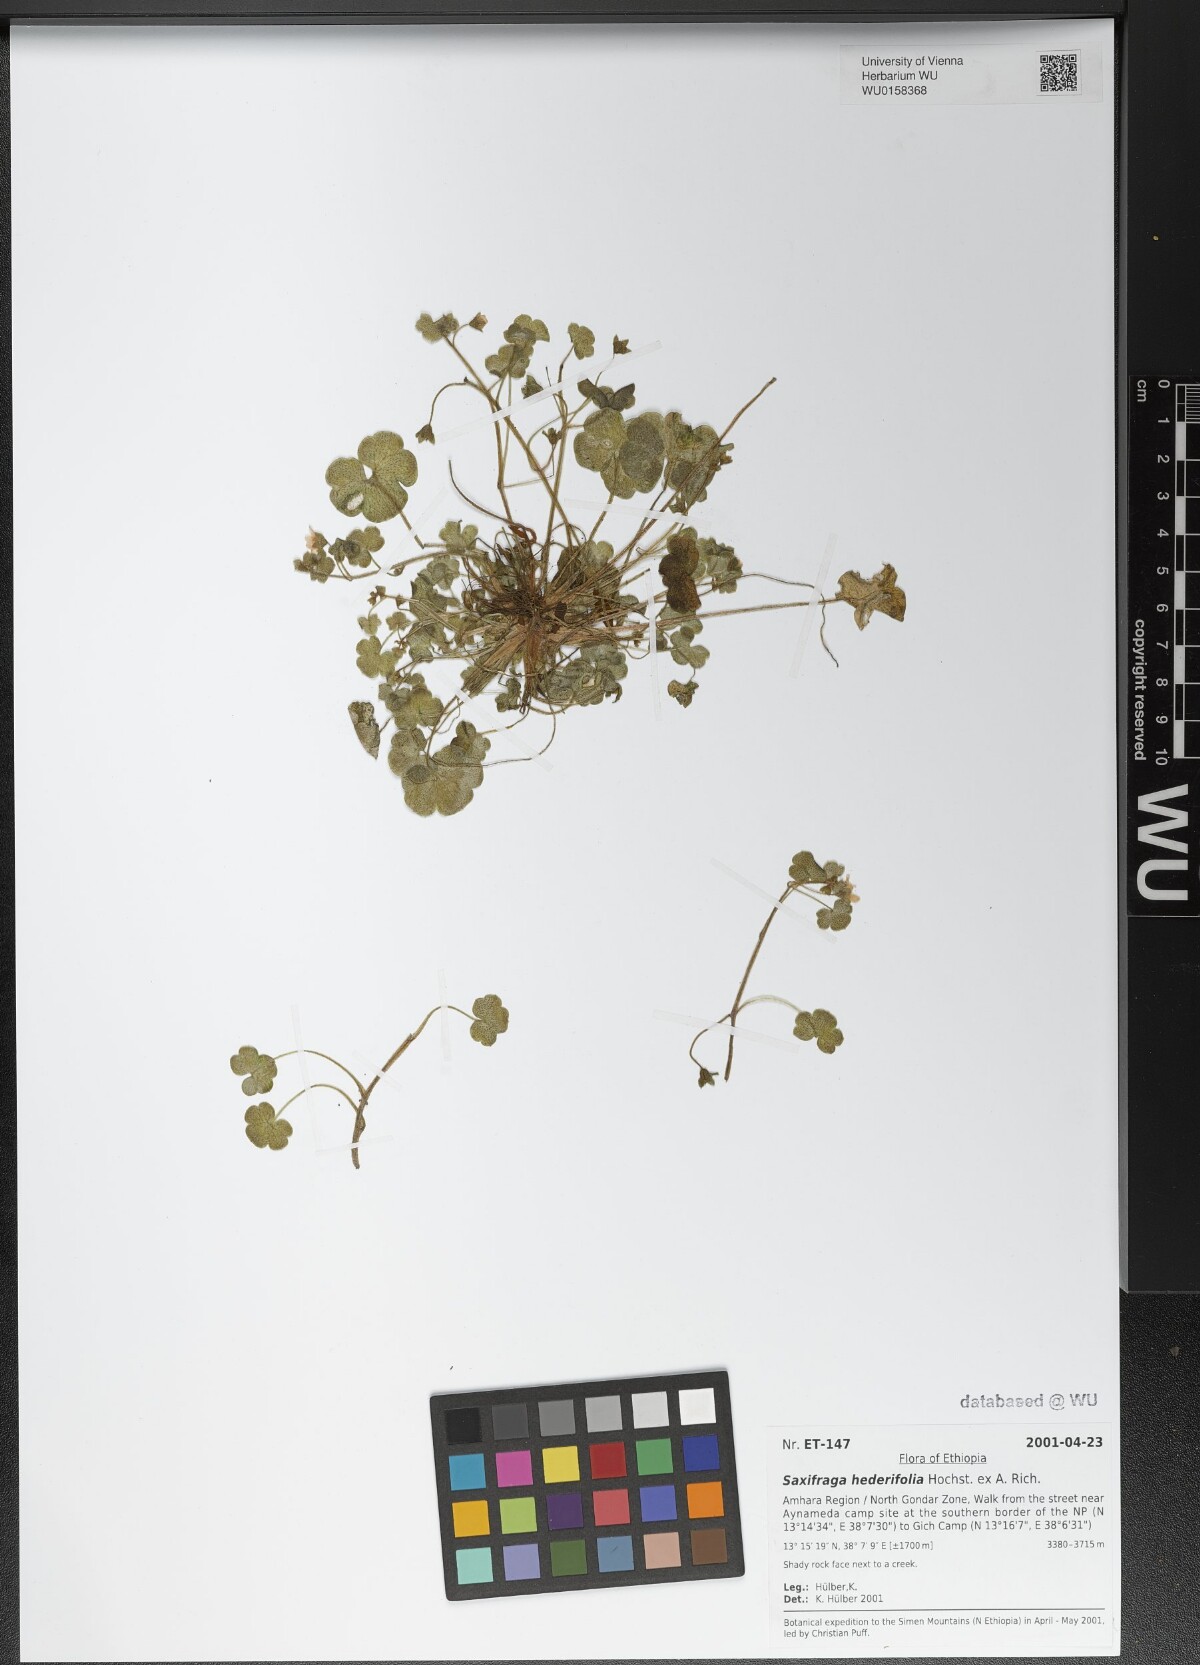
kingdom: Plantae
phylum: Tracheophyta
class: Magnoliopsida
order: Saxifragales
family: Saxifragaceae
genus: Saxifraga
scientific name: Saxifraga hederifolia
